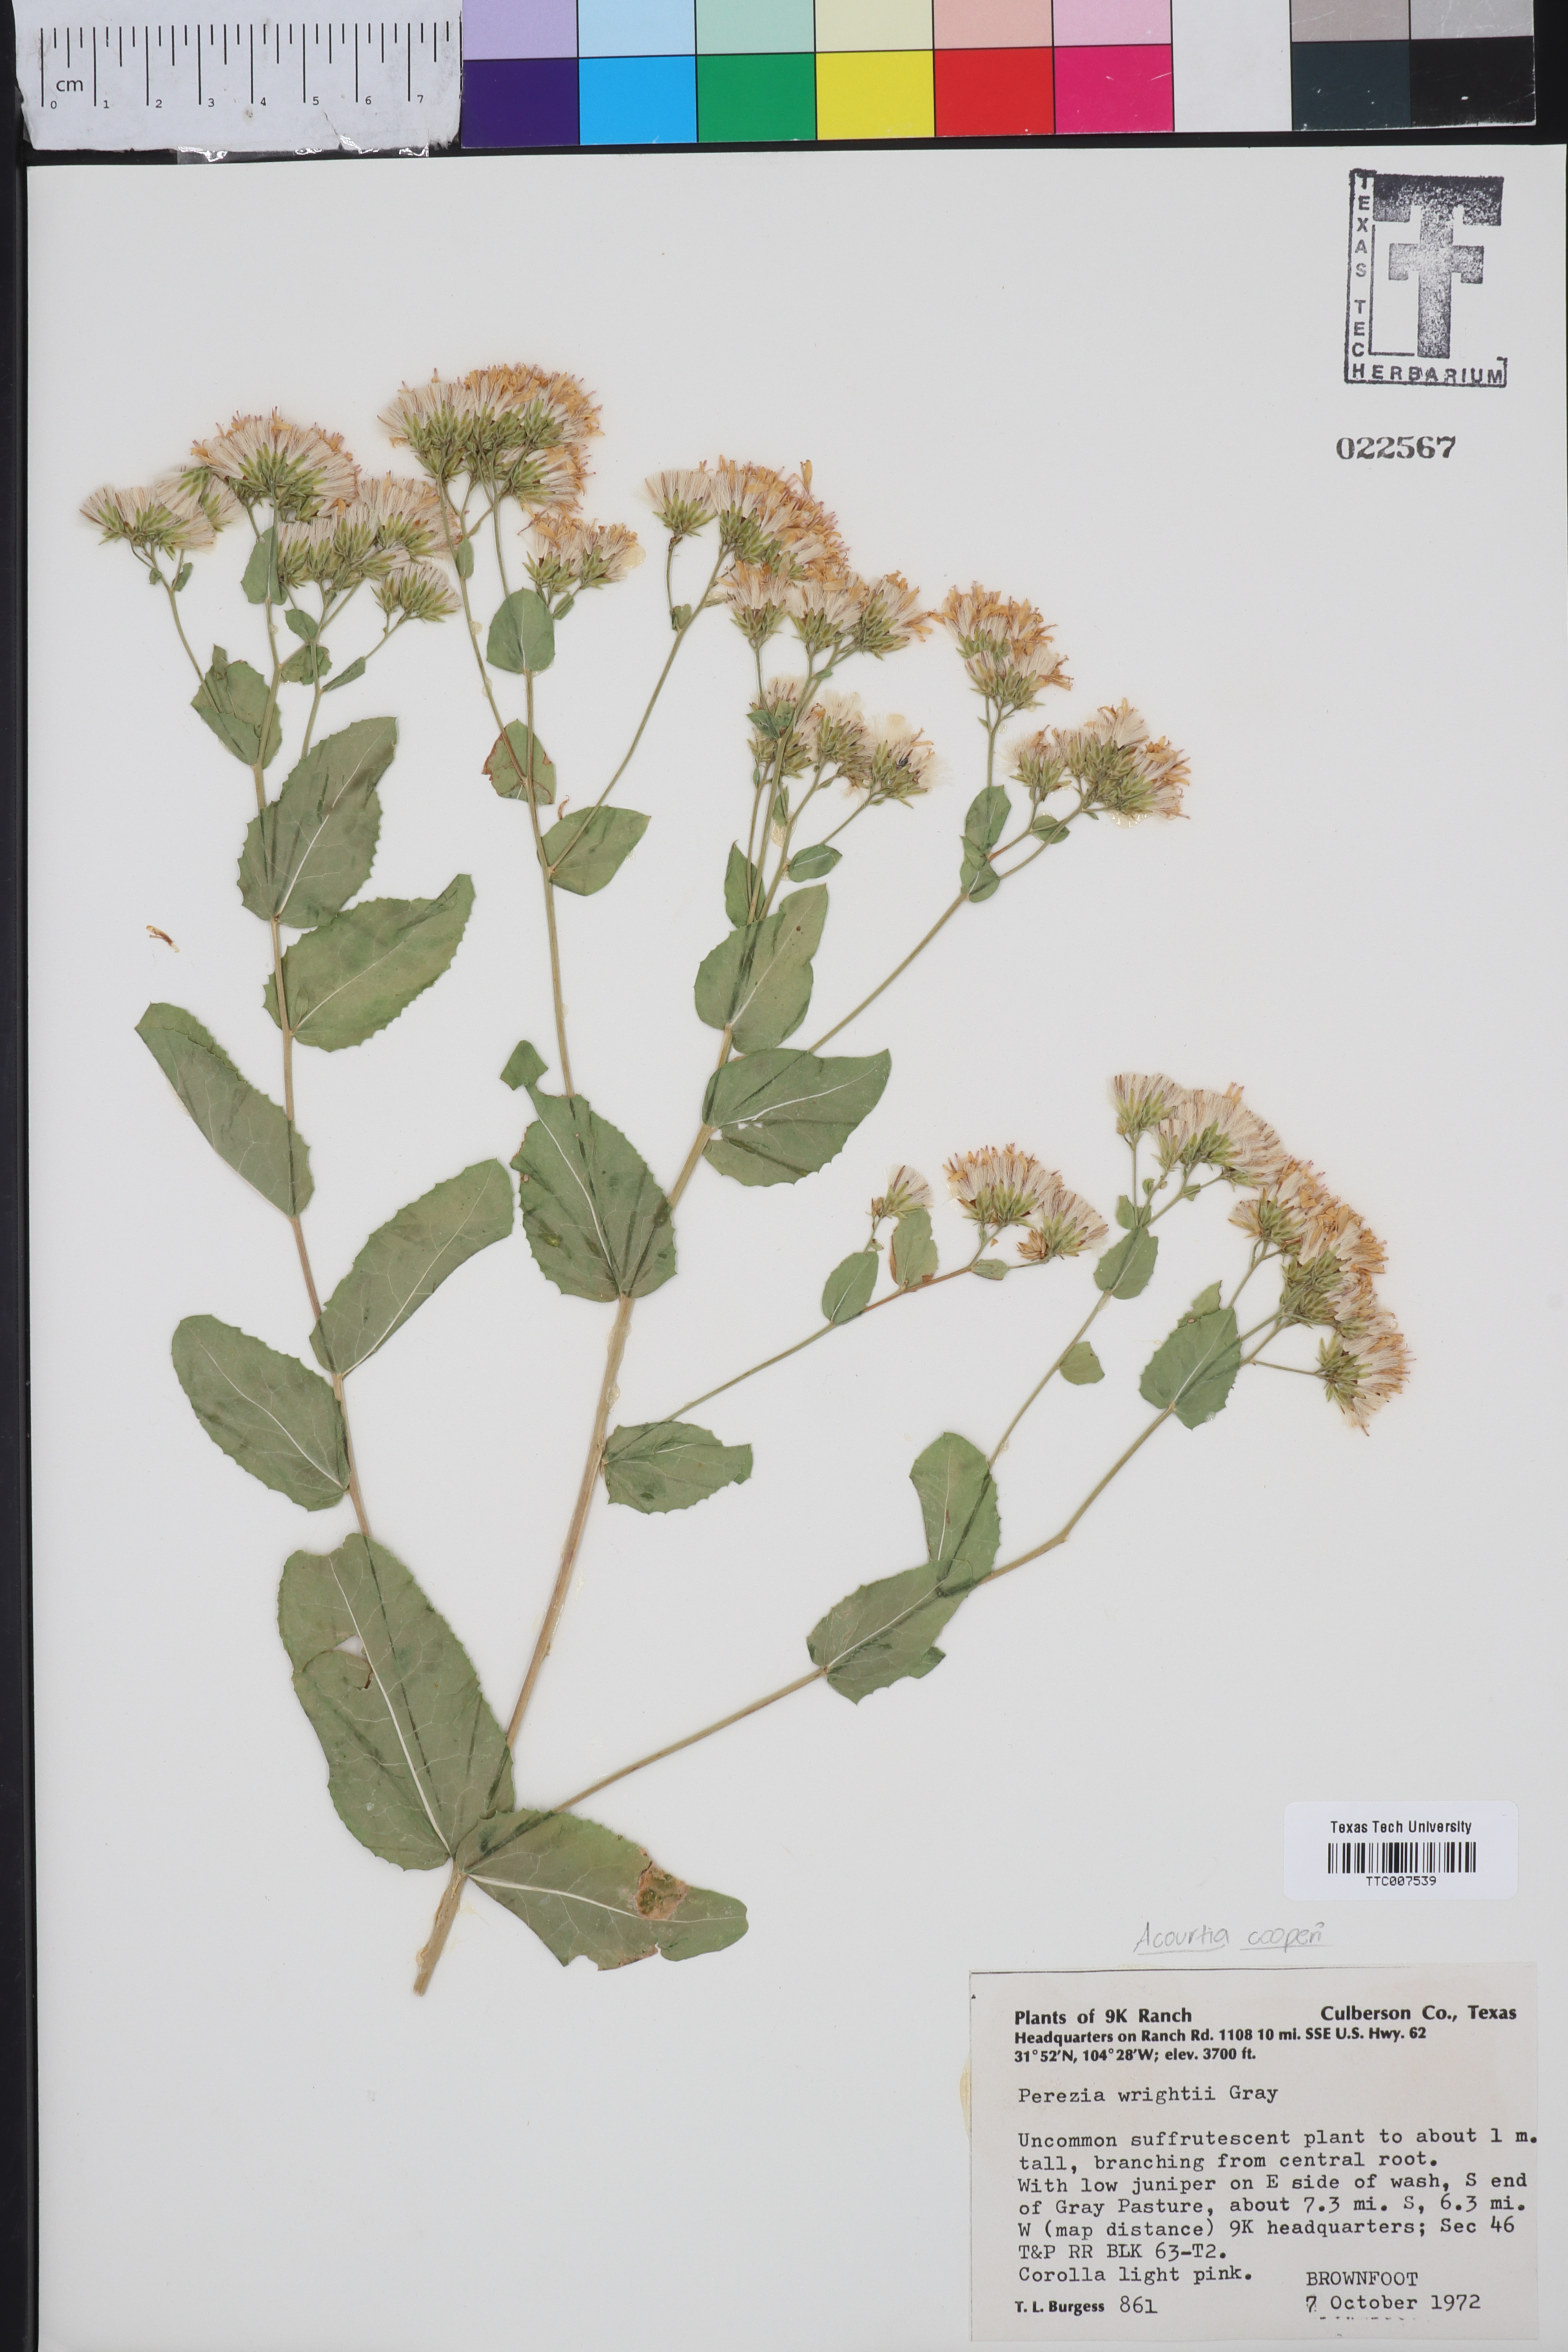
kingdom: Plantae
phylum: Tracheophyta
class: Magnoliopsida
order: Asterales
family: Asteraceae
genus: Acourtia
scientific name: Acourtia wrightii
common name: Brownfoot
